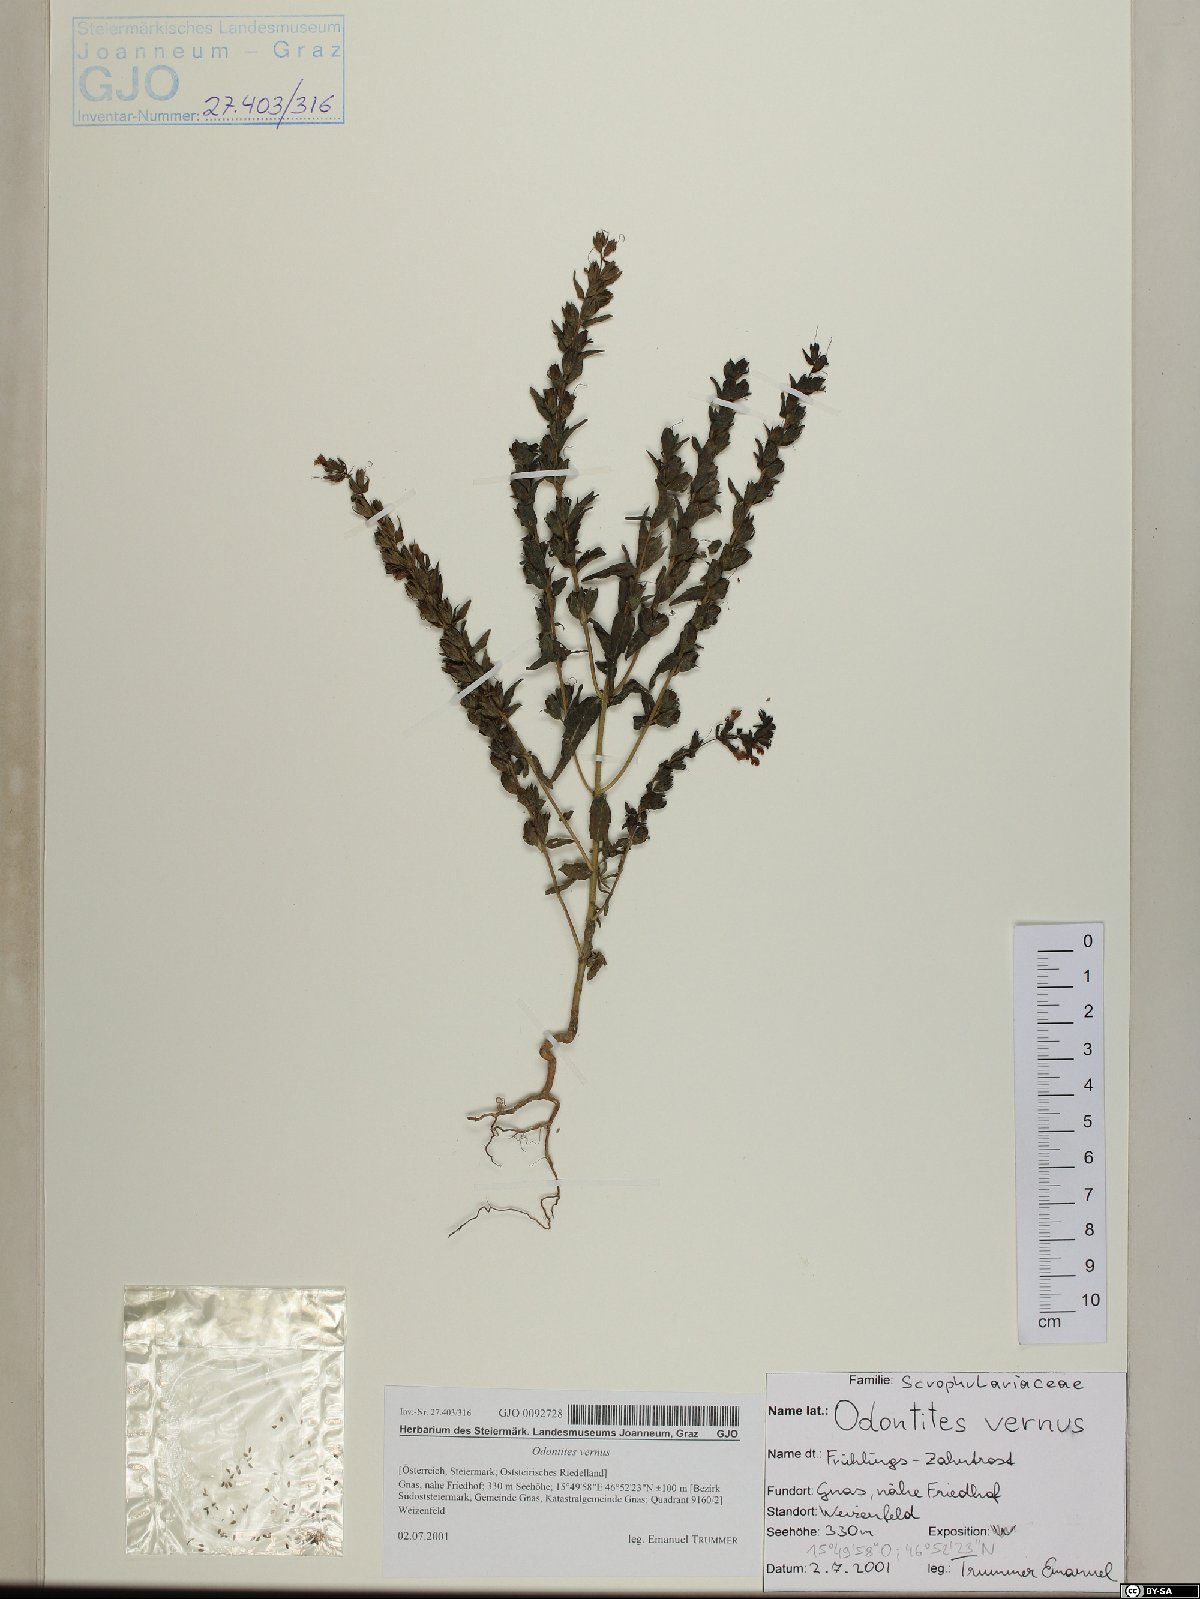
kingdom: Plantae
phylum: Tracheophyta
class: Magnoliopsida
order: Lamiales
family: Orobanchaceae
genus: Odontites
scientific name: Odontites vernus
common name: Red bartsia
